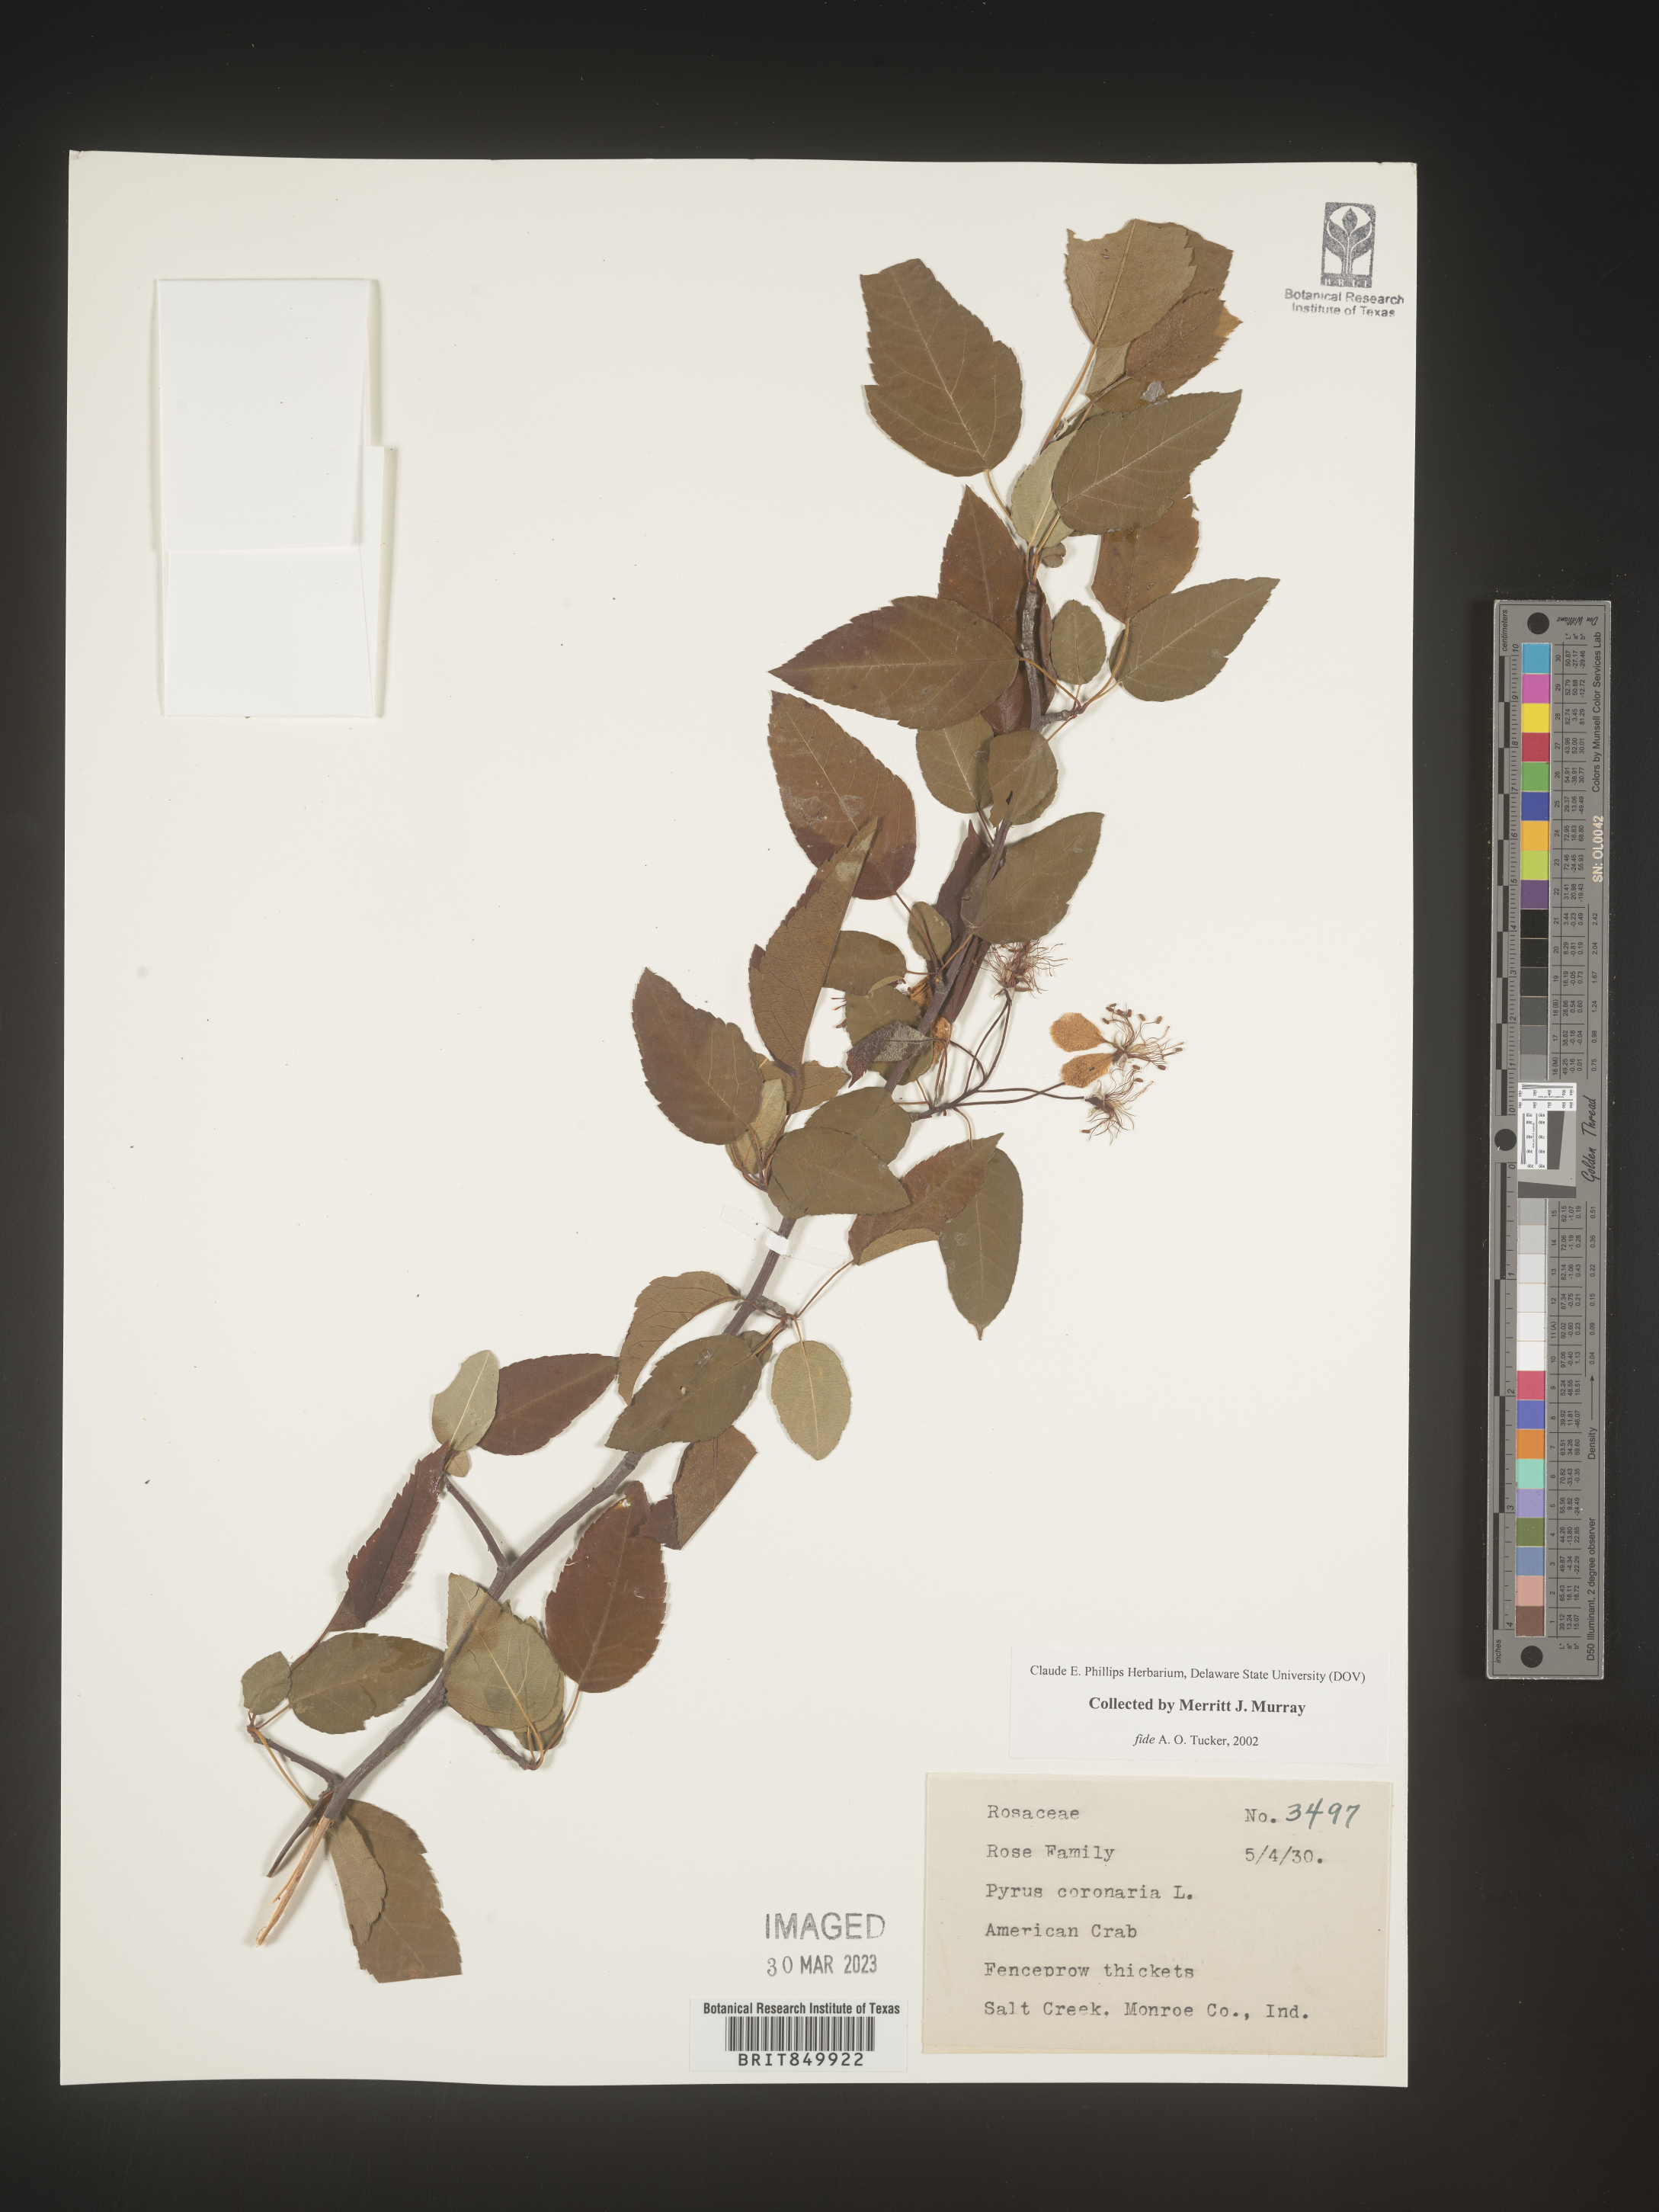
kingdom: Plantae
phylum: Tracheophyta
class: Magnoliopsida
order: Rosales
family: Rosaceae
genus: Pyrus
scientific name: Pyrus
